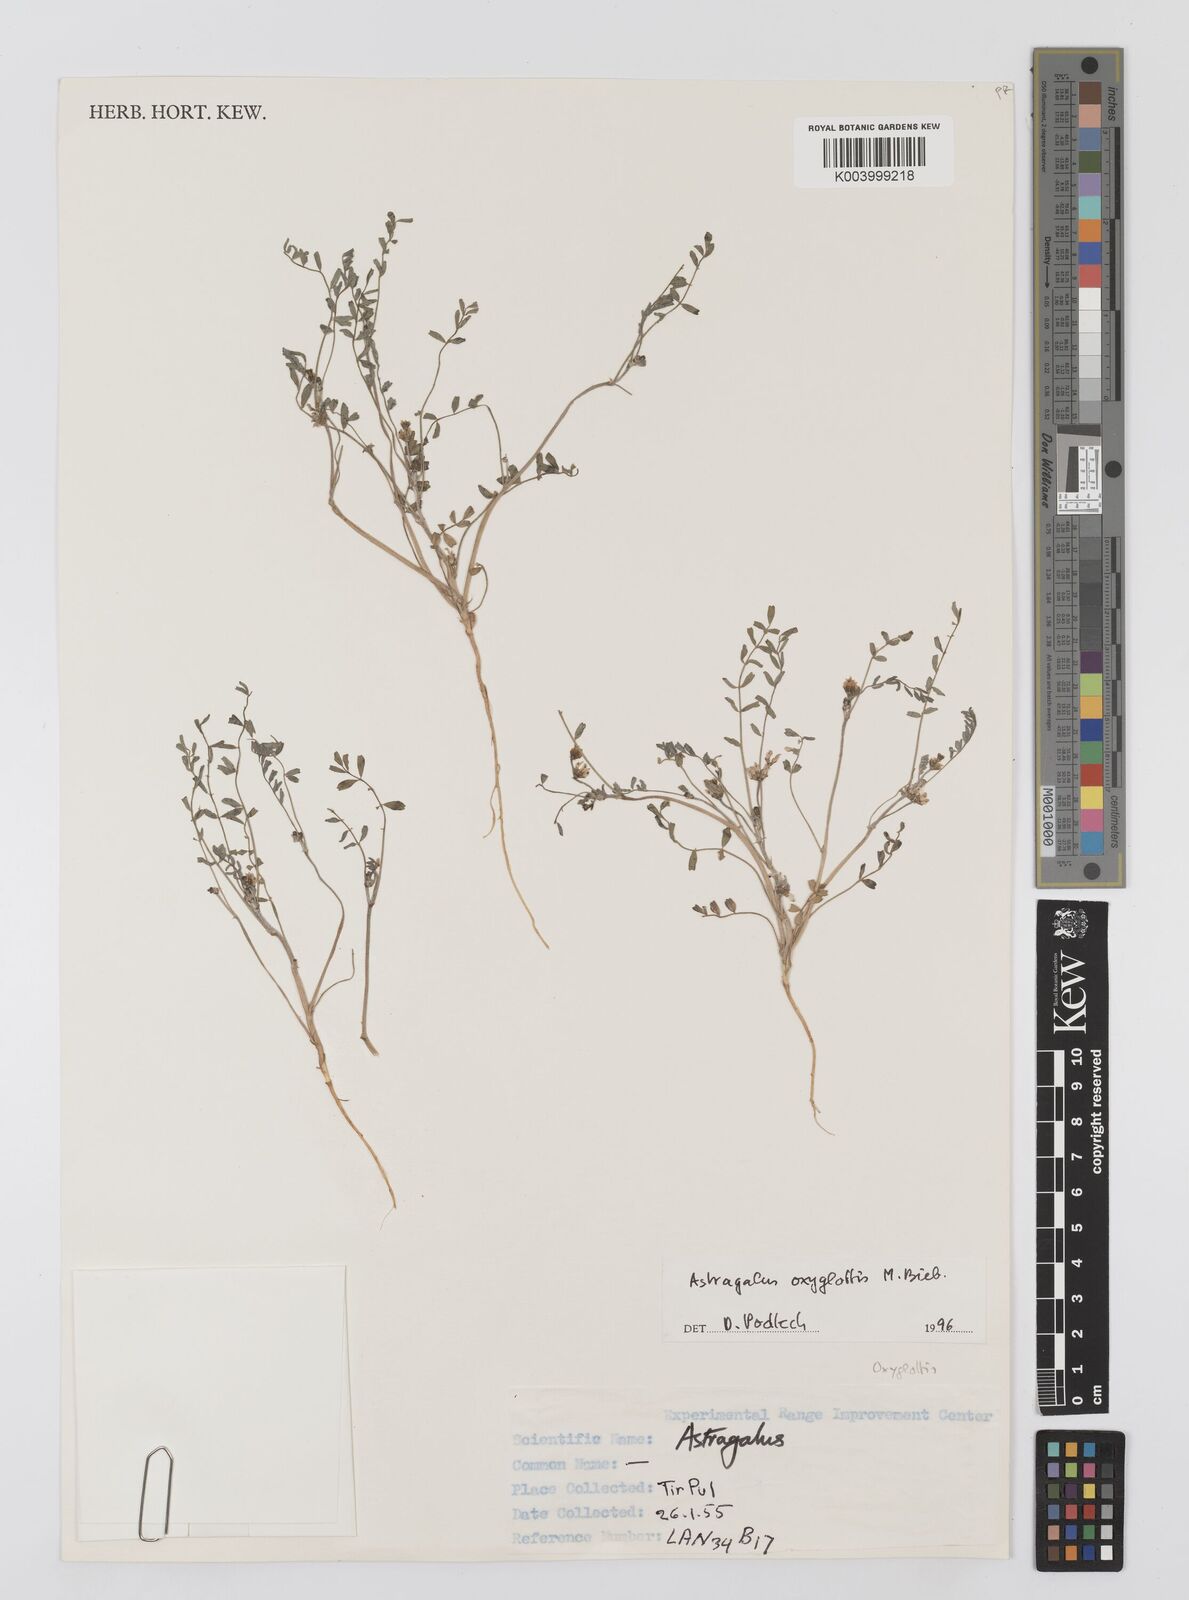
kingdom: Plantae
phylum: Tracheophyta
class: Magnoliopsida
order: Fabales
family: Fabaceae
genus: Astragalus
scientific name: Astragalus oxyglottis
